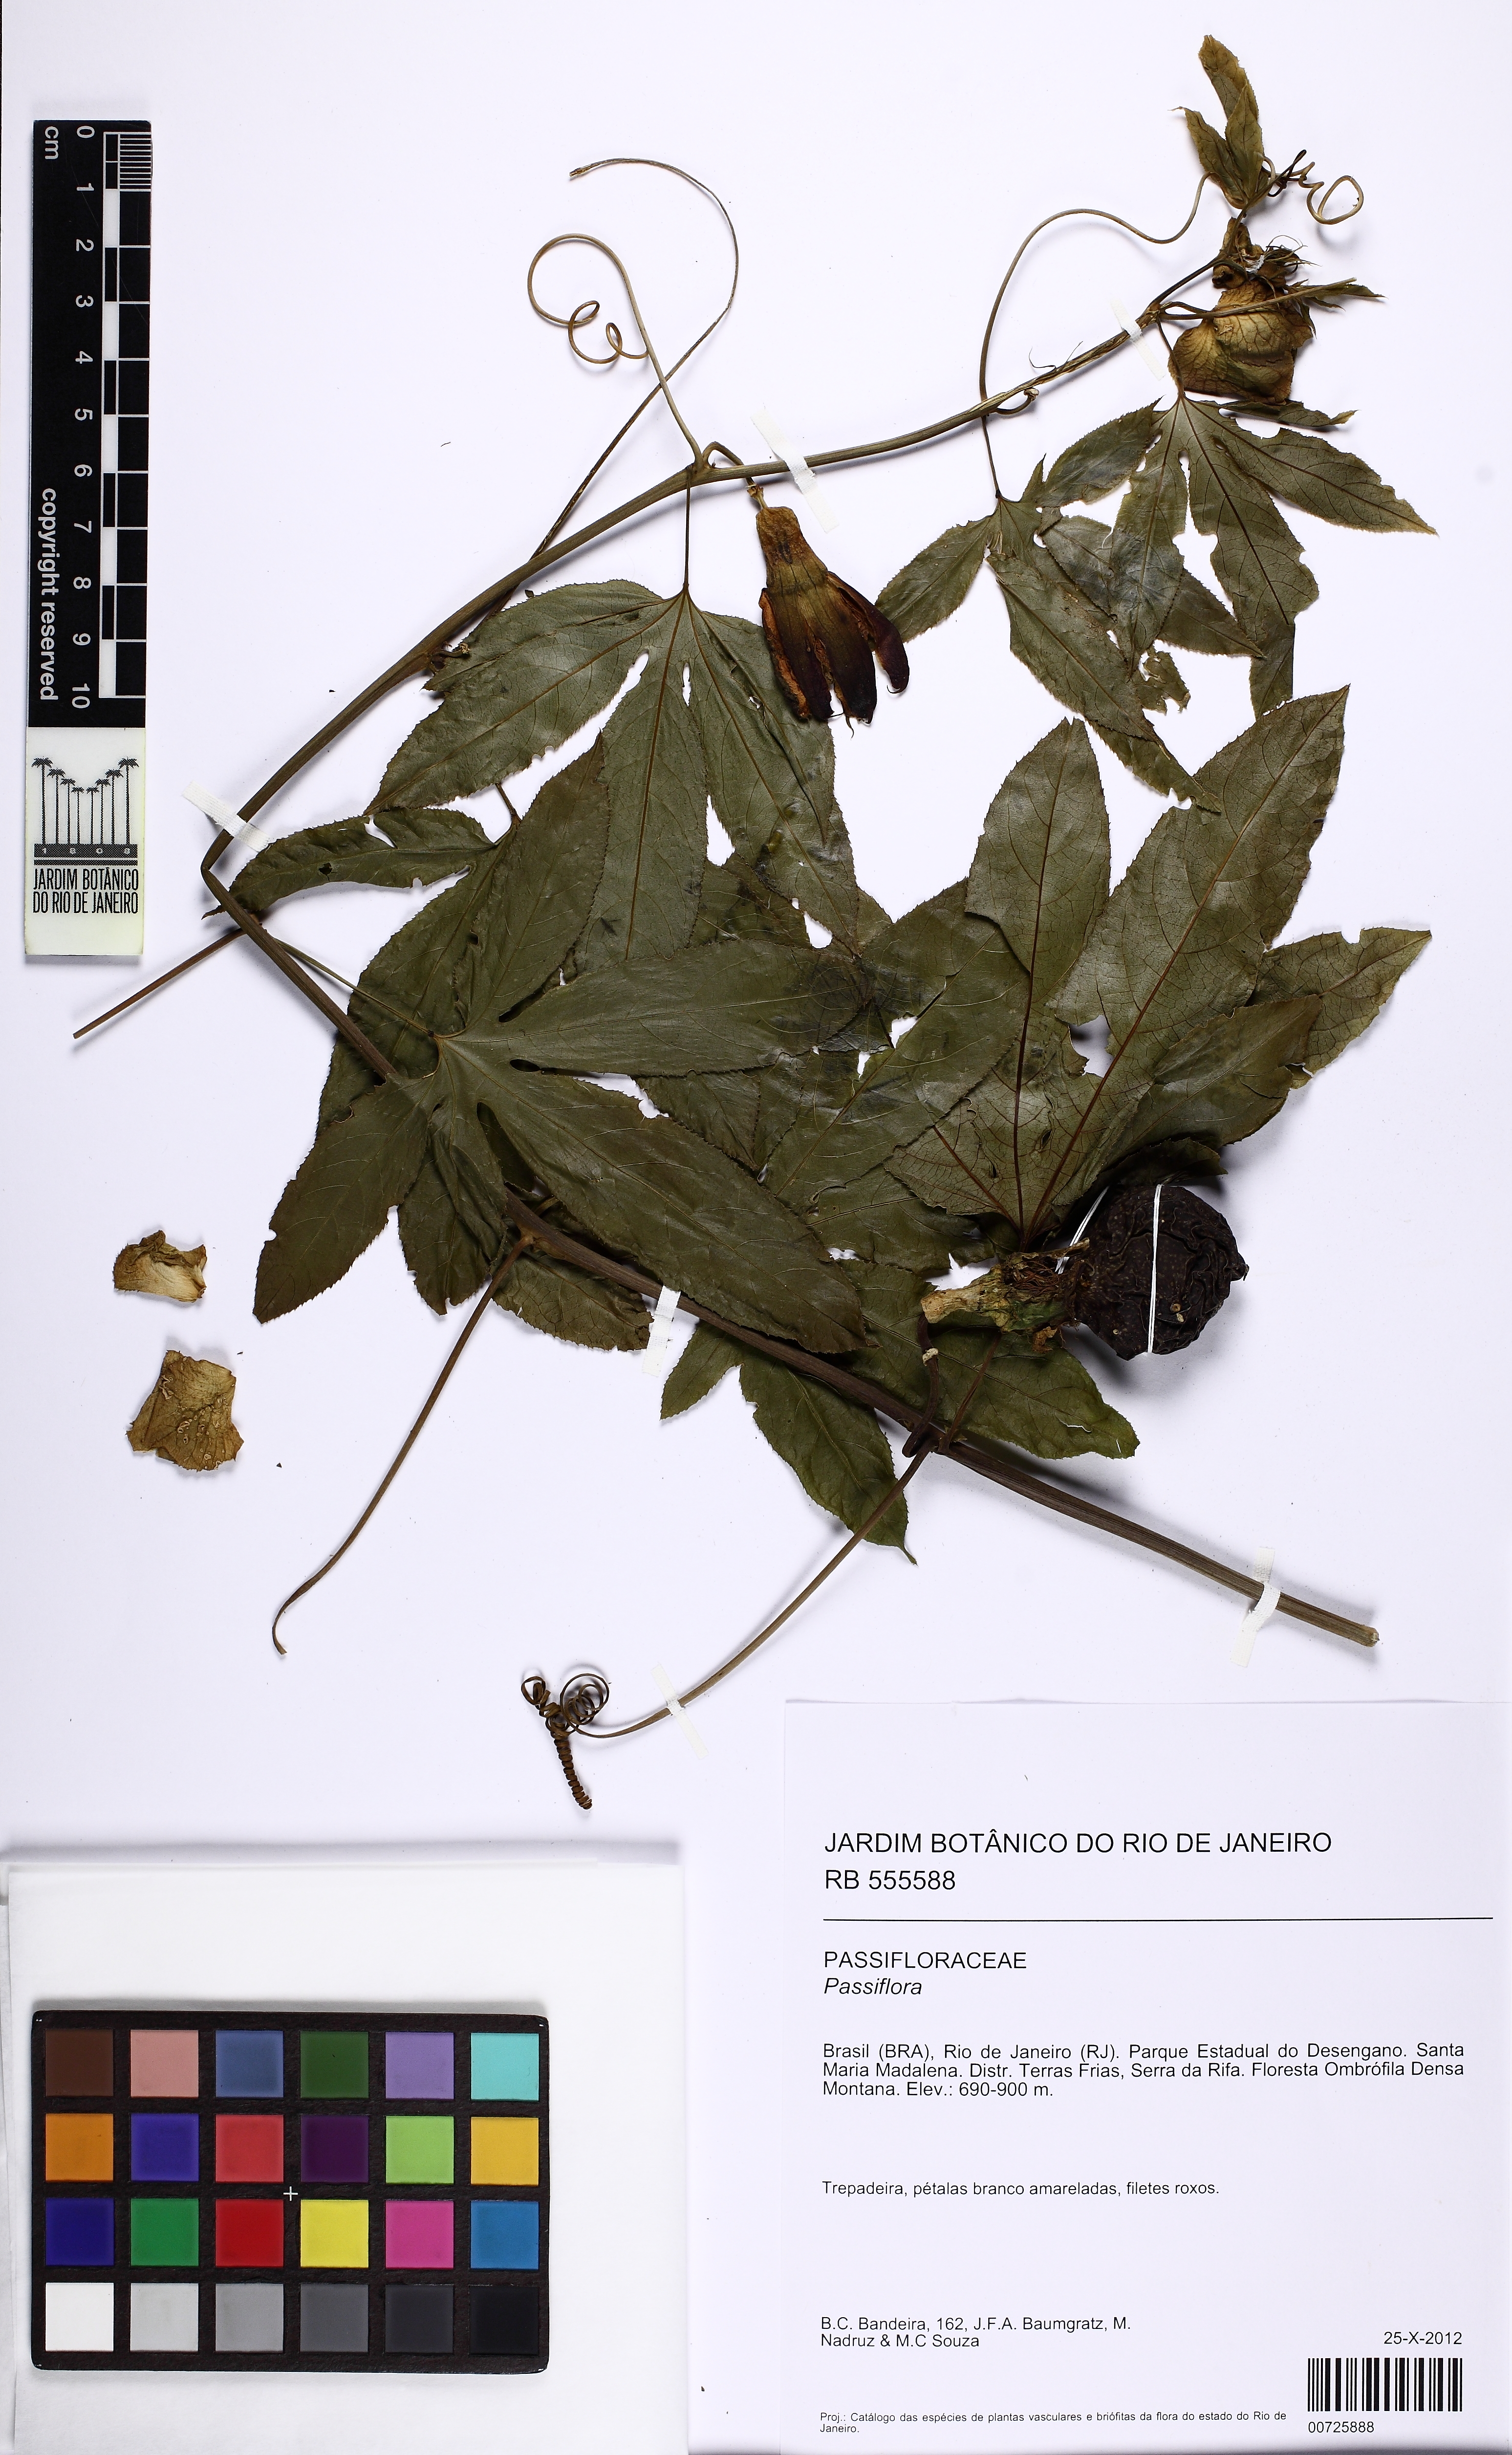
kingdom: Plantae
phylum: Tracheophyta
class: Magnoliopsida
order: Malpighiales
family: Passifloraceae
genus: Passiflora
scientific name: Passiflora
